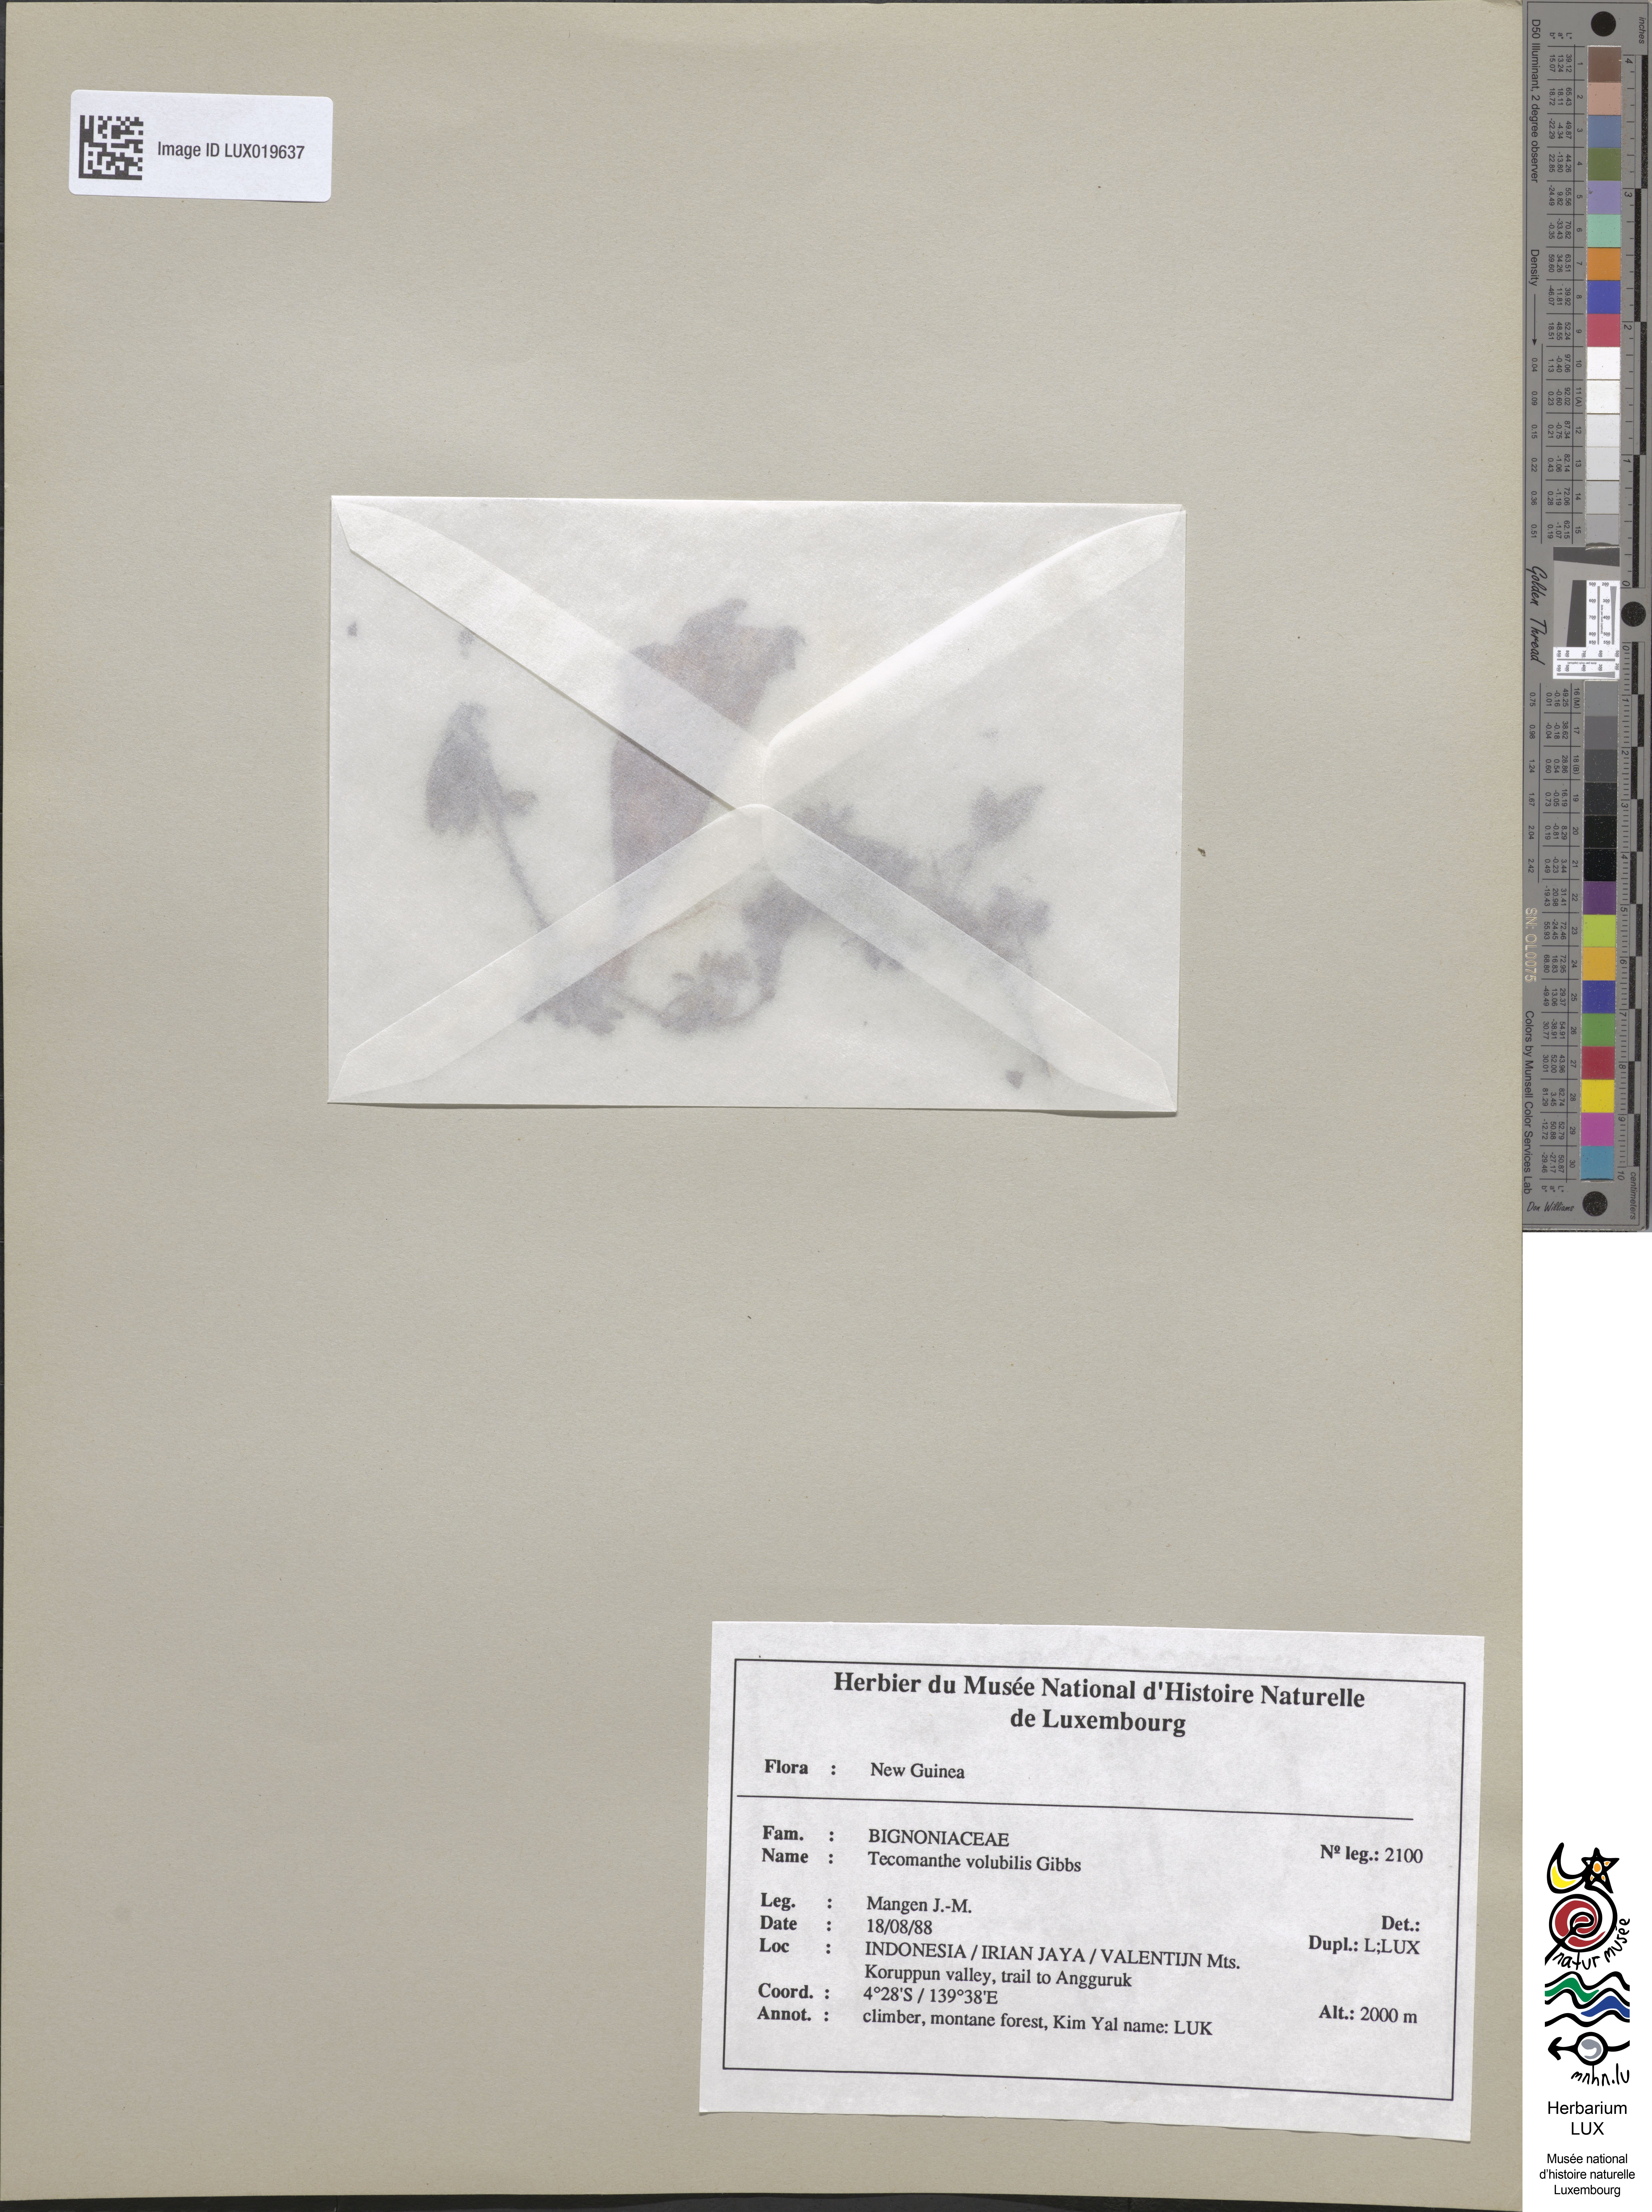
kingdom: Plantae
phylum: Tracheophyta
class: Magnoliopsida
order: Lamiales
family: Bignoniaceae
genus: Tecomanthe
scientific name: Tecomanthe volubilis
